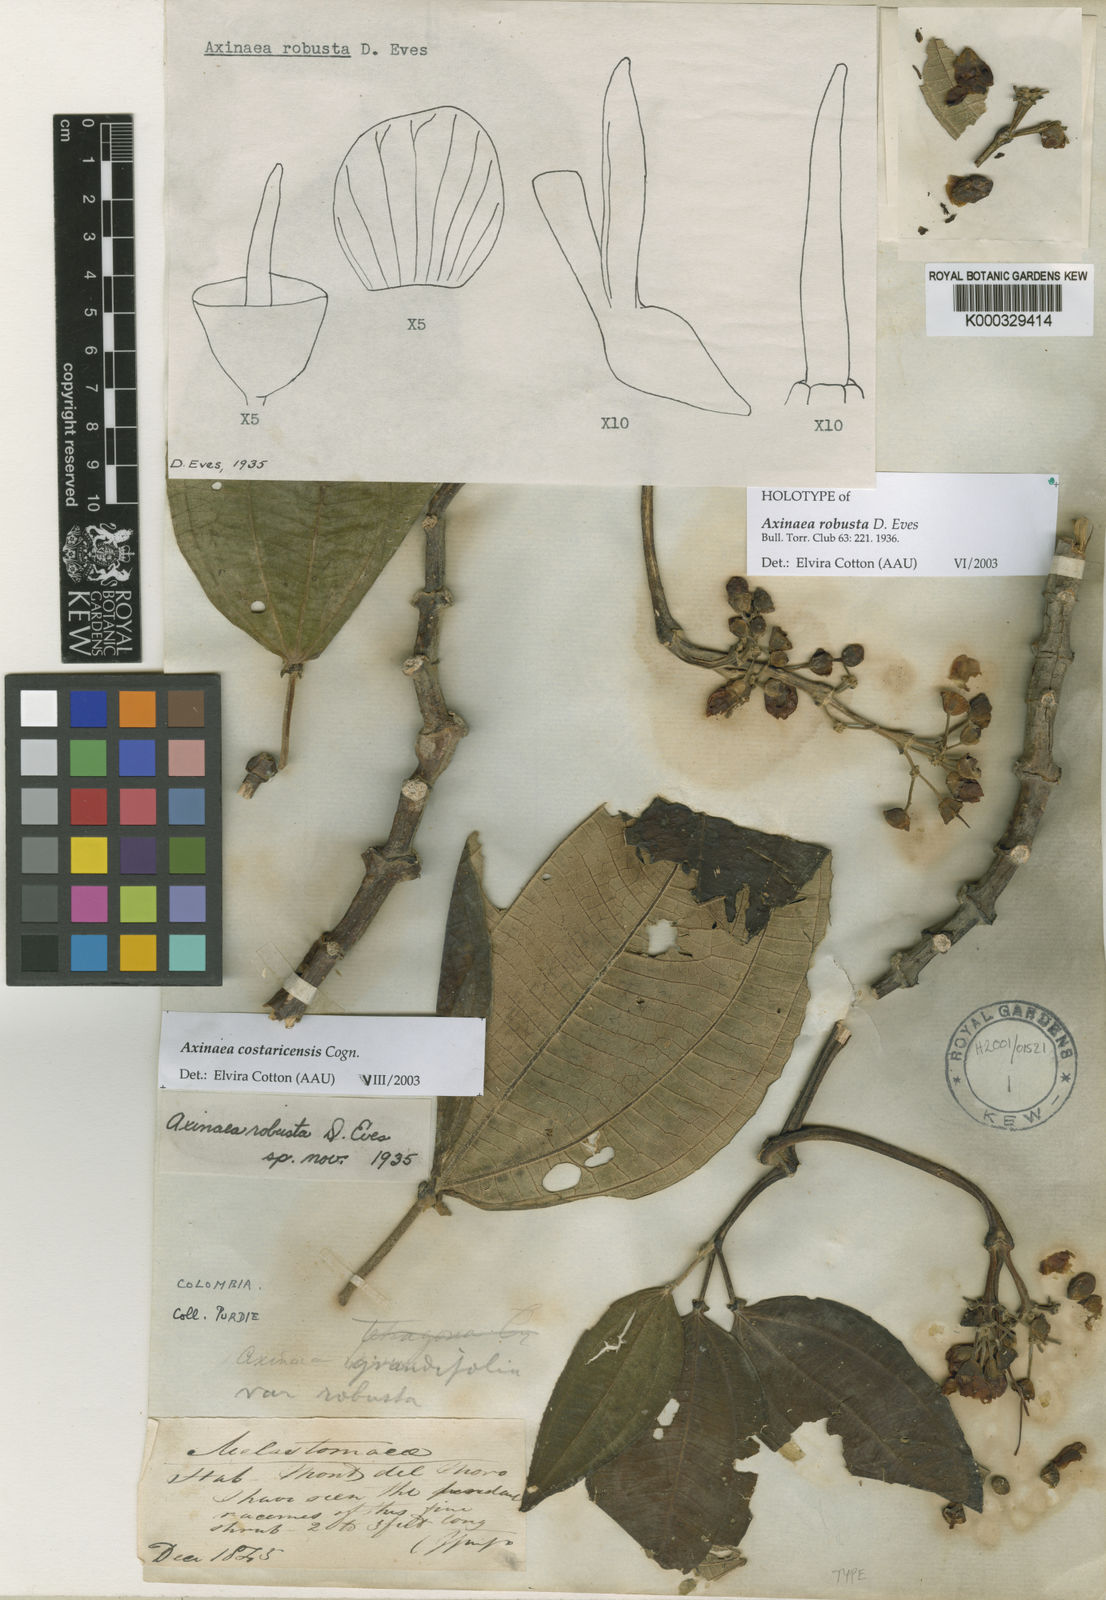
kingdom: Plantae
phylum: Tracheophyta
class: Magnoliopsida
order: Myrtales
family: Melastomataceae
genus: Axinaea
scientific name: Axinaea costaricensis
